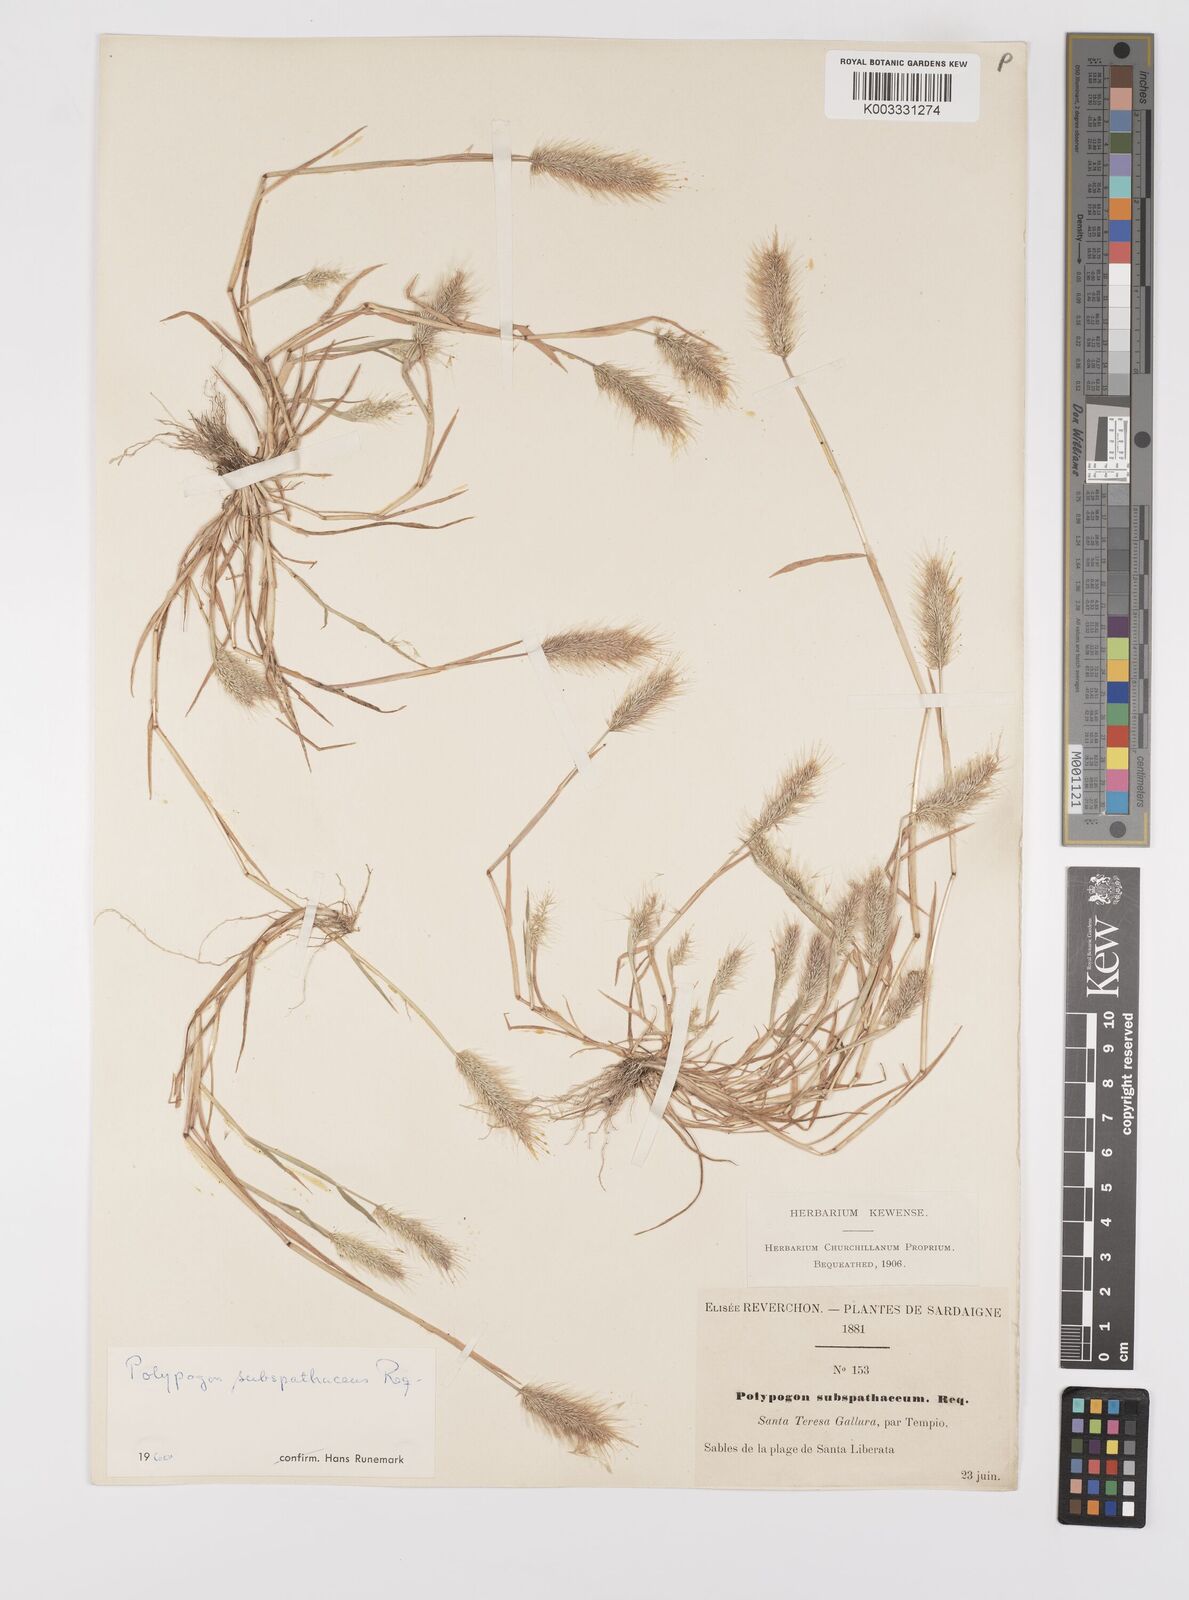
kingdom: Plantae
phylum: Tracheophyta
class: Liliopsida
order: Poales
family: Poaceae
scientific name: Poaceae
